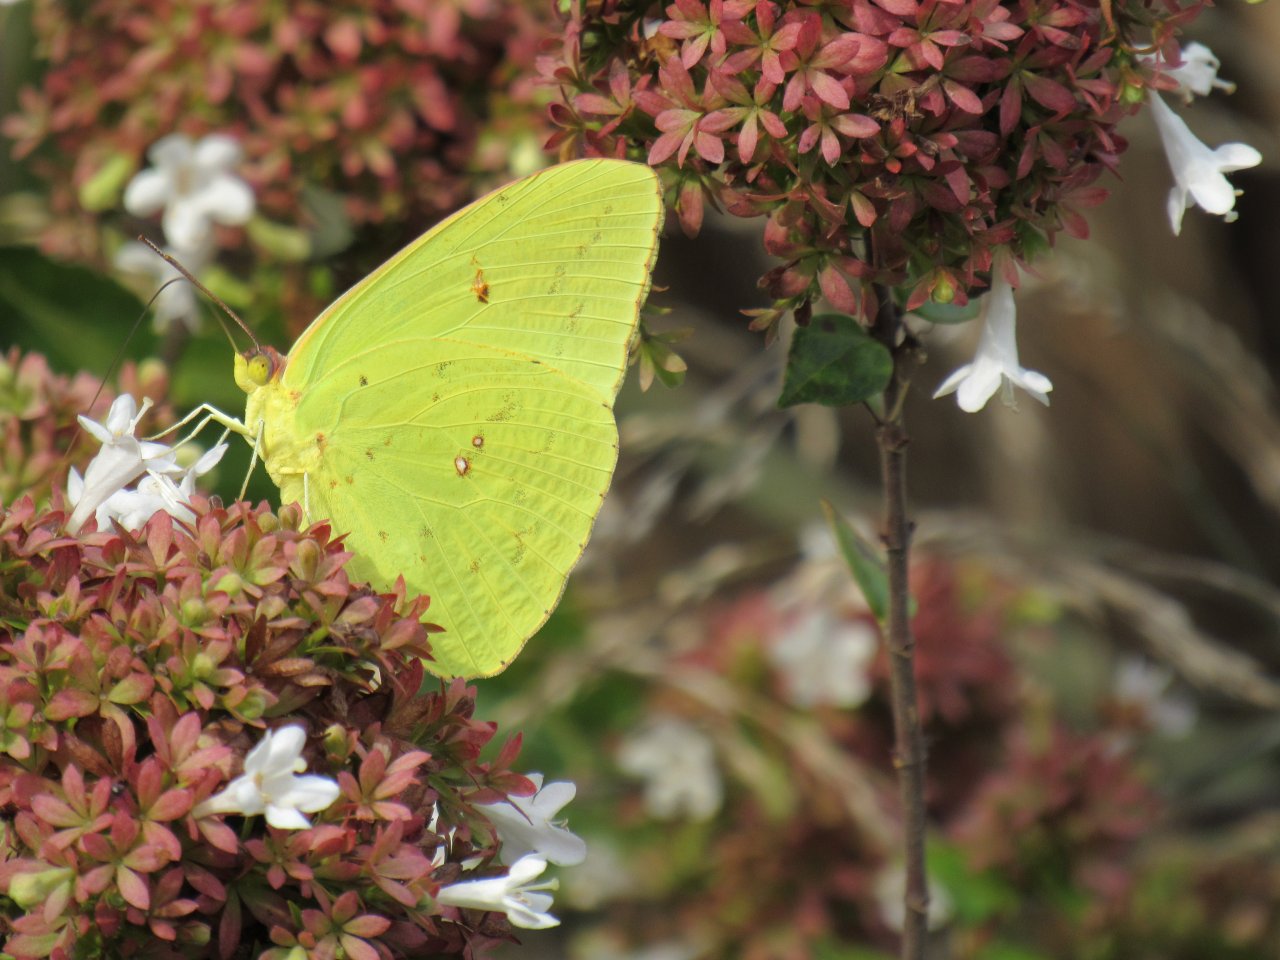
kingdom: Animalia
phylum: Arthropoda
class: Insecta
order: Lepidoptera
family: Pieridae
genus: Phoebis
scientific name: Phoebis sennae
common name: Cloudless Sulphur
